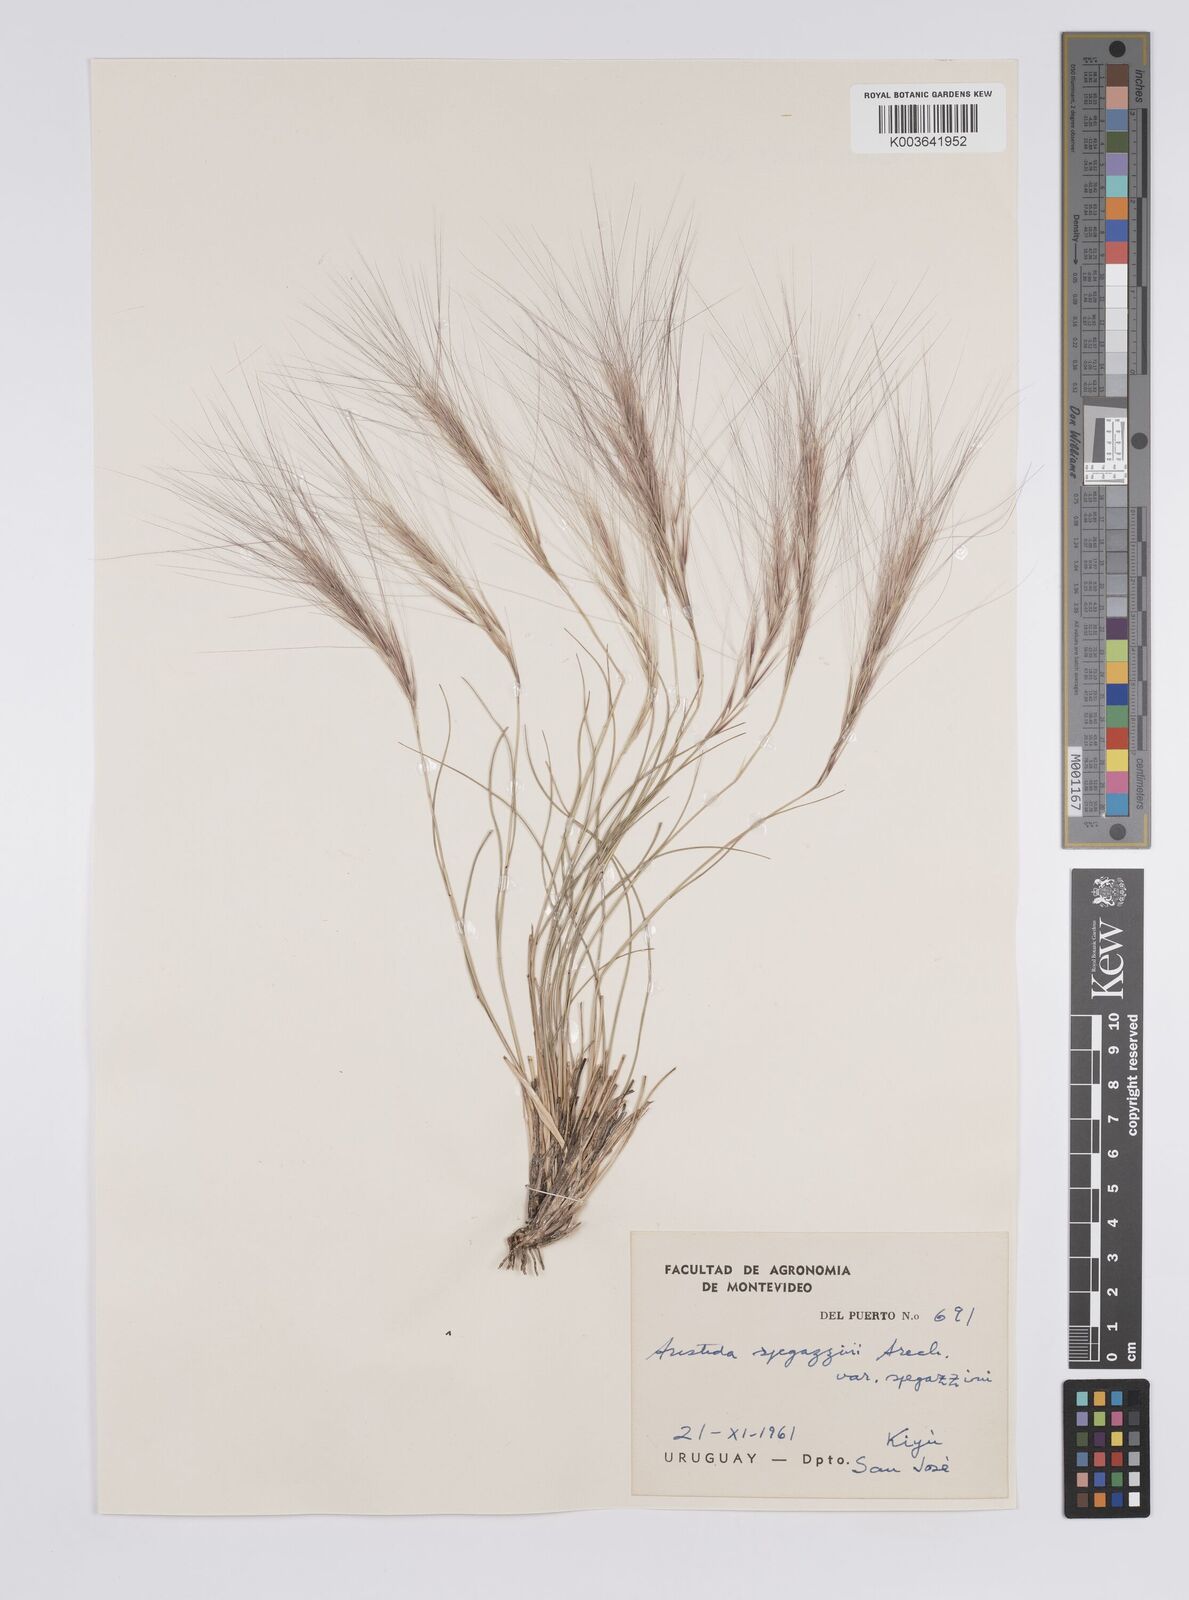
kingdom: Plantae
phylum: Tracheophyta
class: Liliopsida
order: Poales
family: Poaceae
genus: Aristida
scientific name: Aristida spegazzinii
